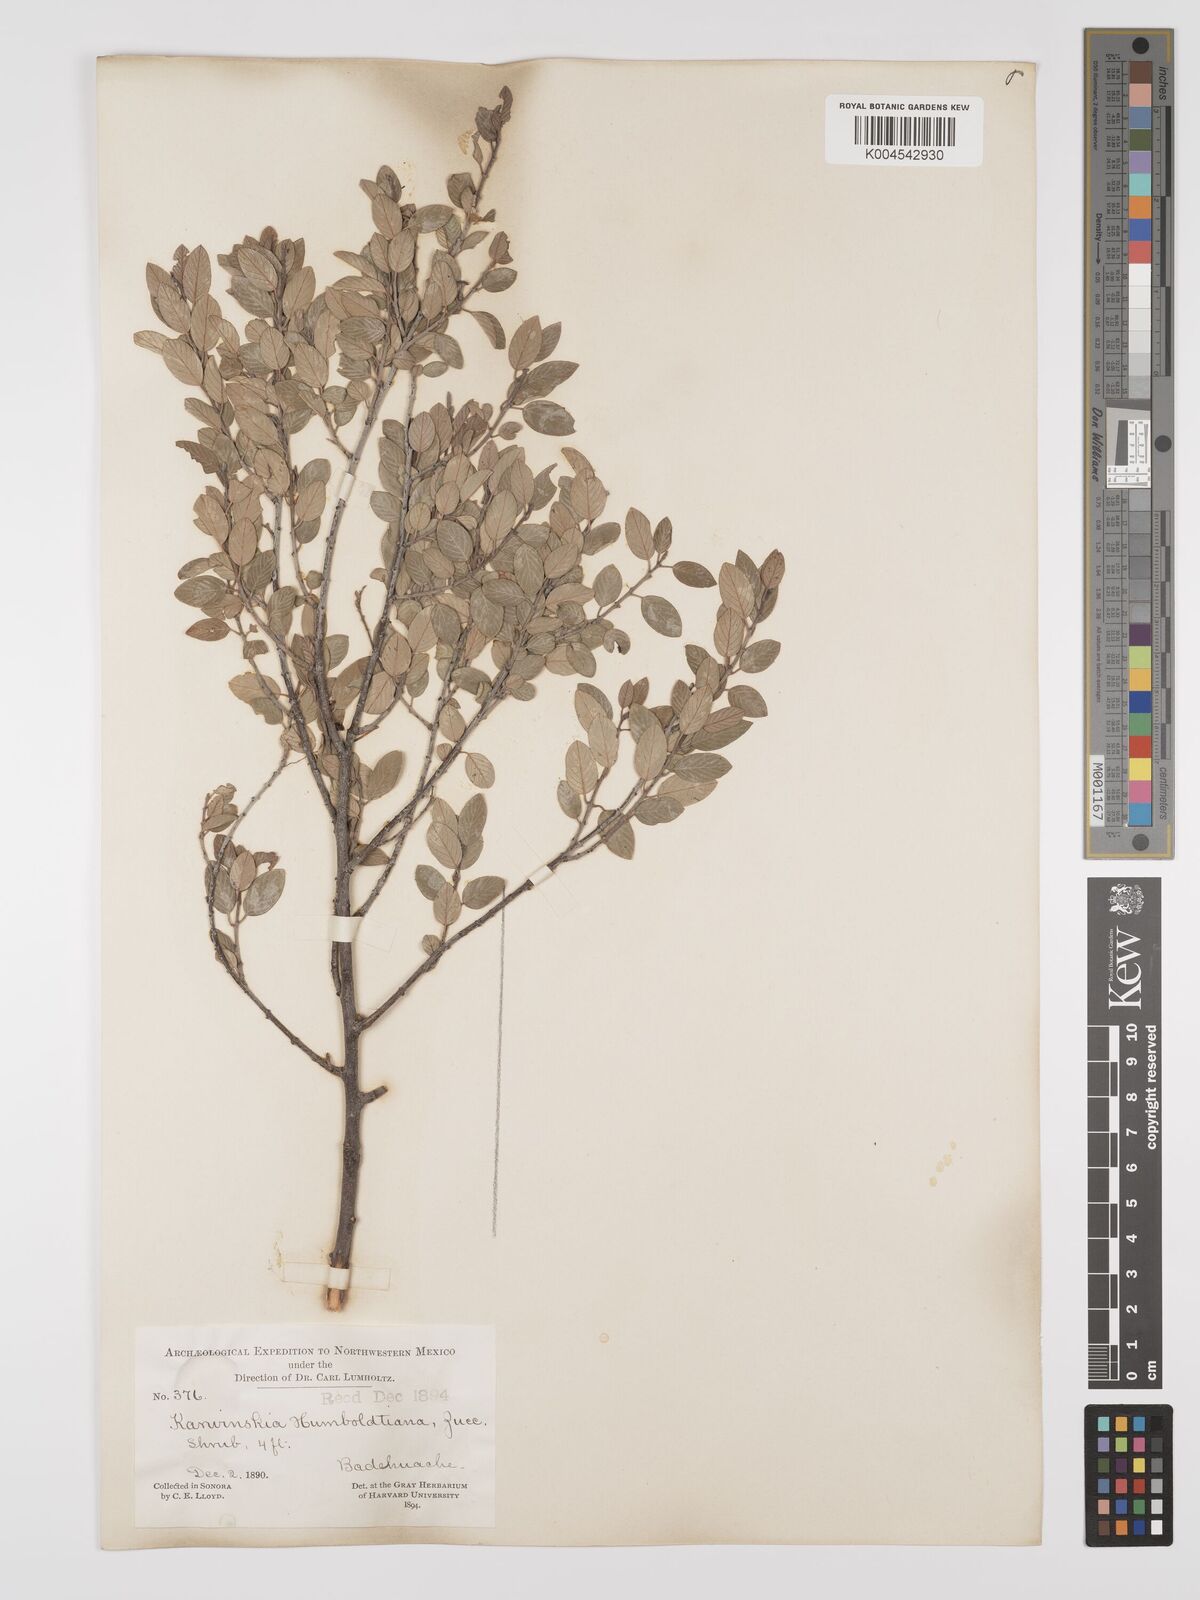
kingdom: Plantae
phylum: Tracheophyta
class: Magnoliopsida
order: Rosales
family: Rhamnaceae
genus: Karwinskia
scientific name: Karwinskia parvifolia
